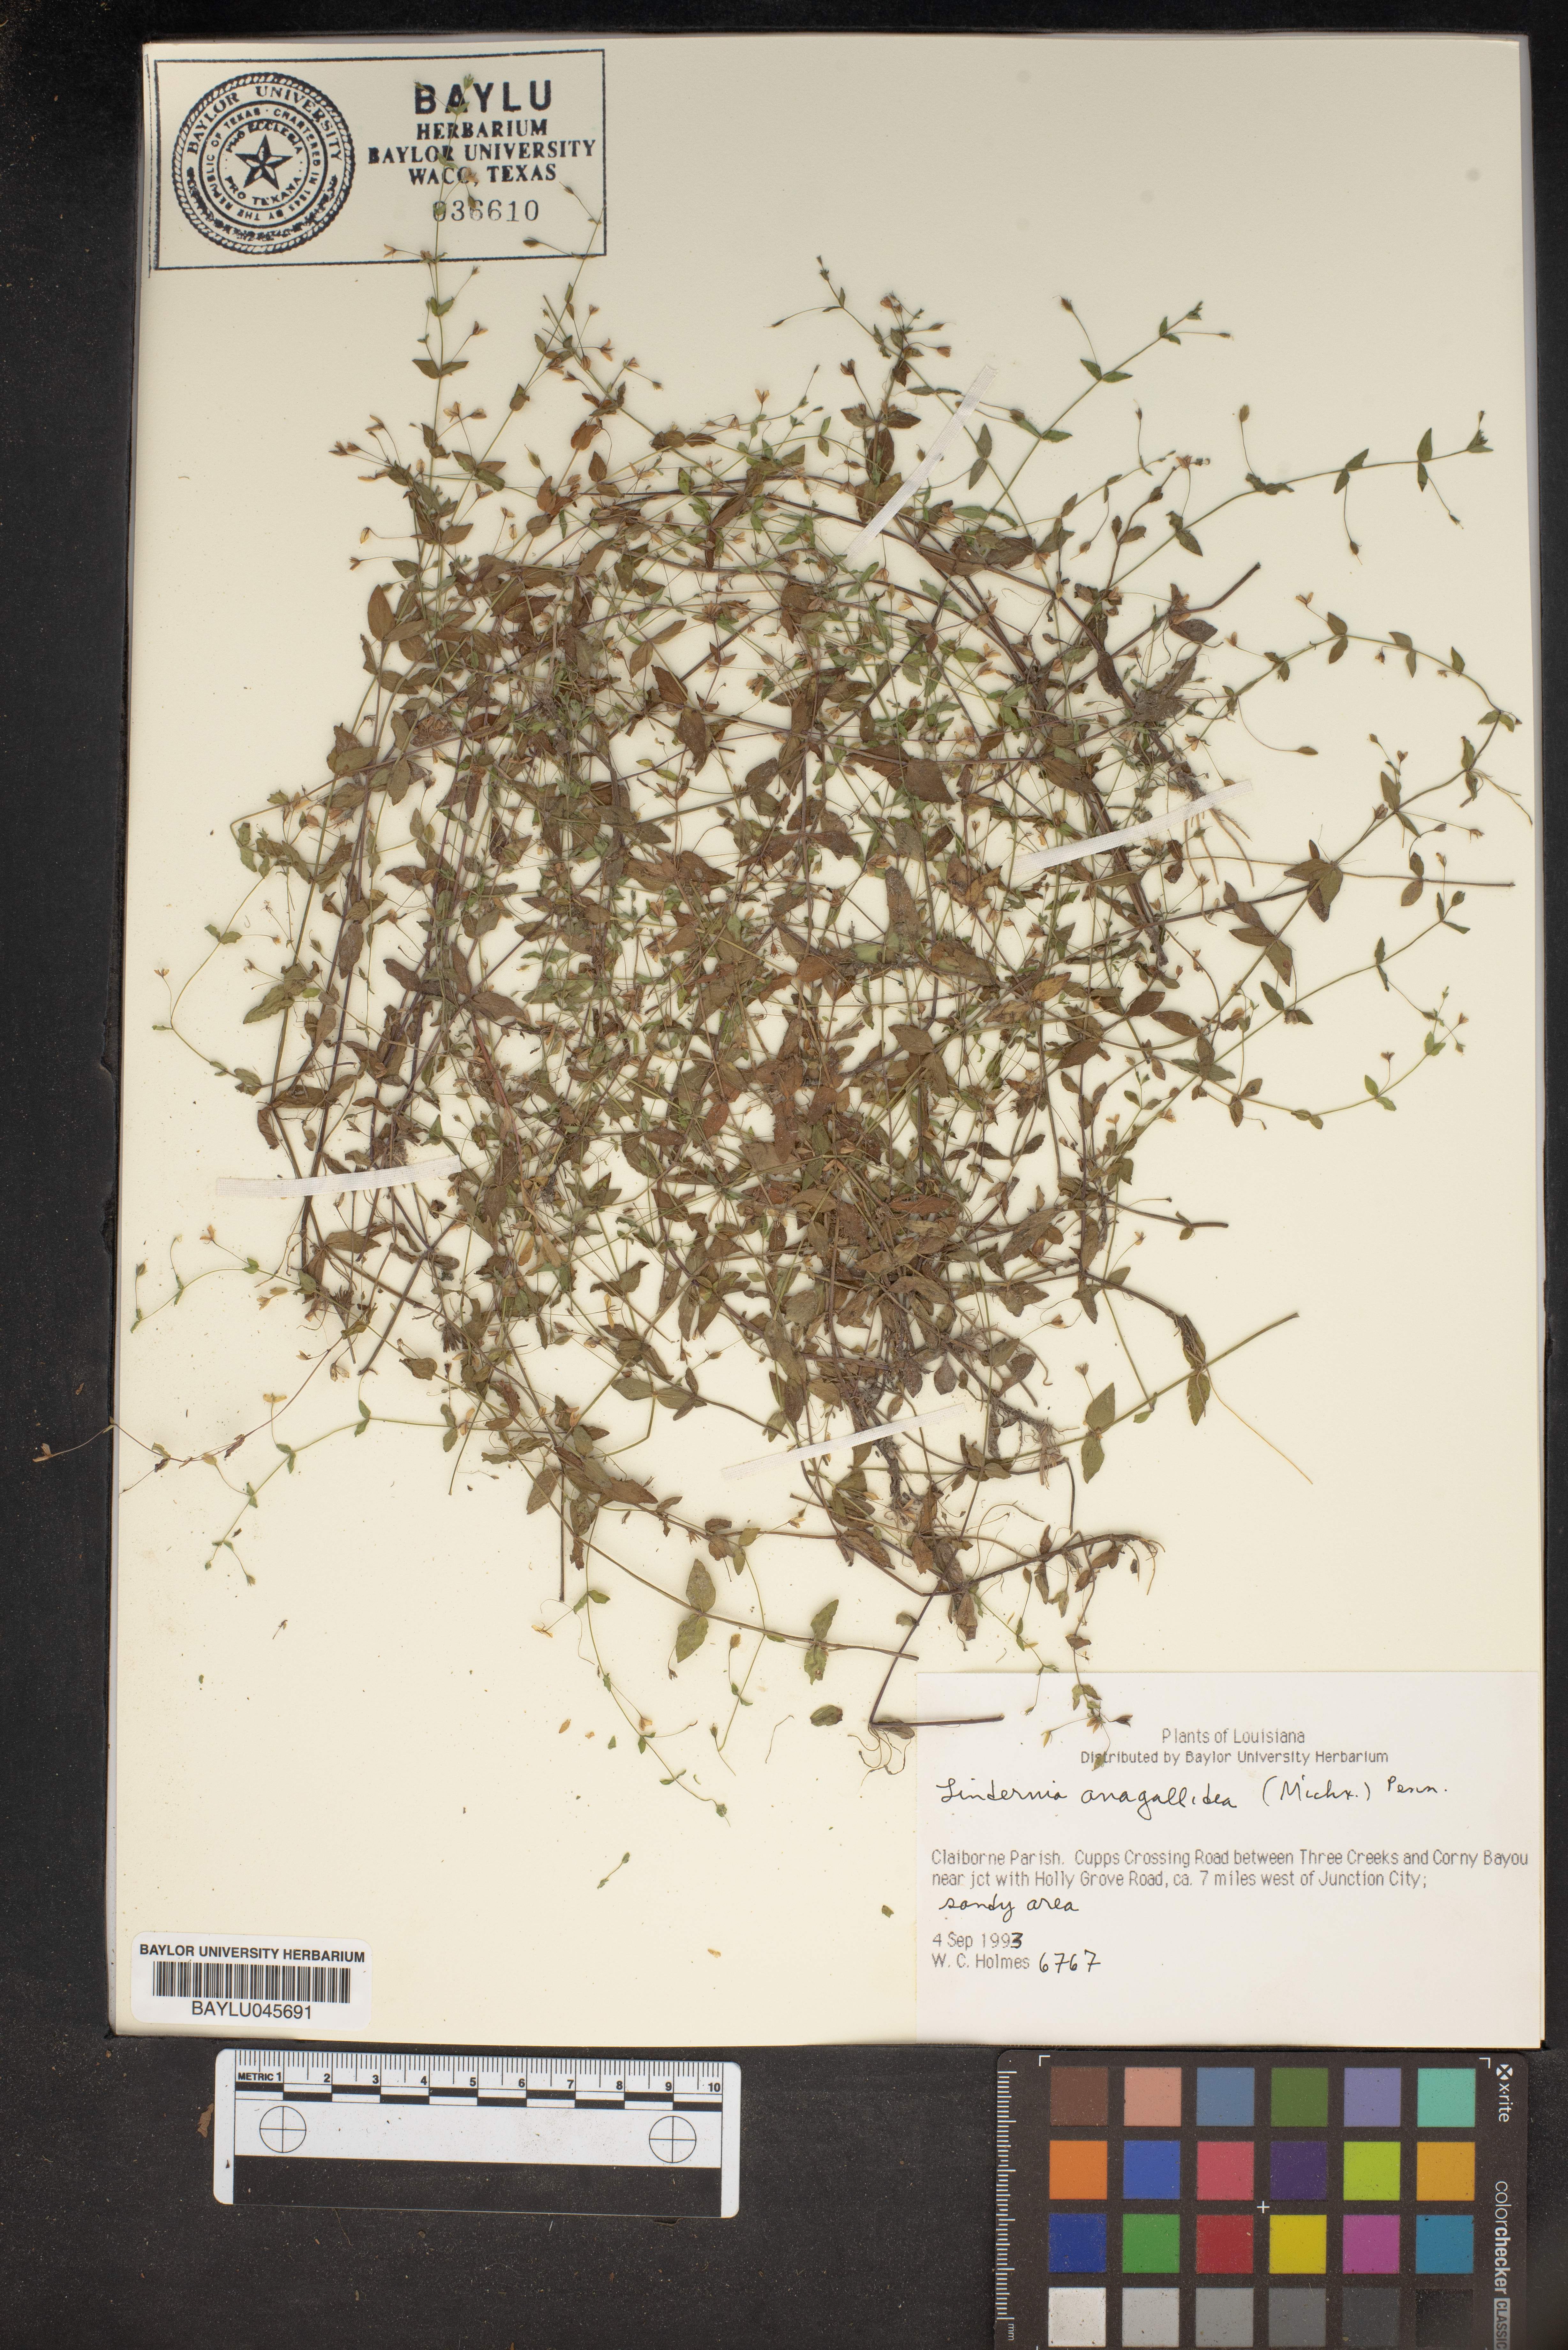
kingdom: Plantae
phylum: Tracheophyta
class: Magnoliopsida
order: Lamiales
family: Linderniaceae
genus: Lindernia
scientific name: Lindernia dubia
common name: Annual false pimpernel
